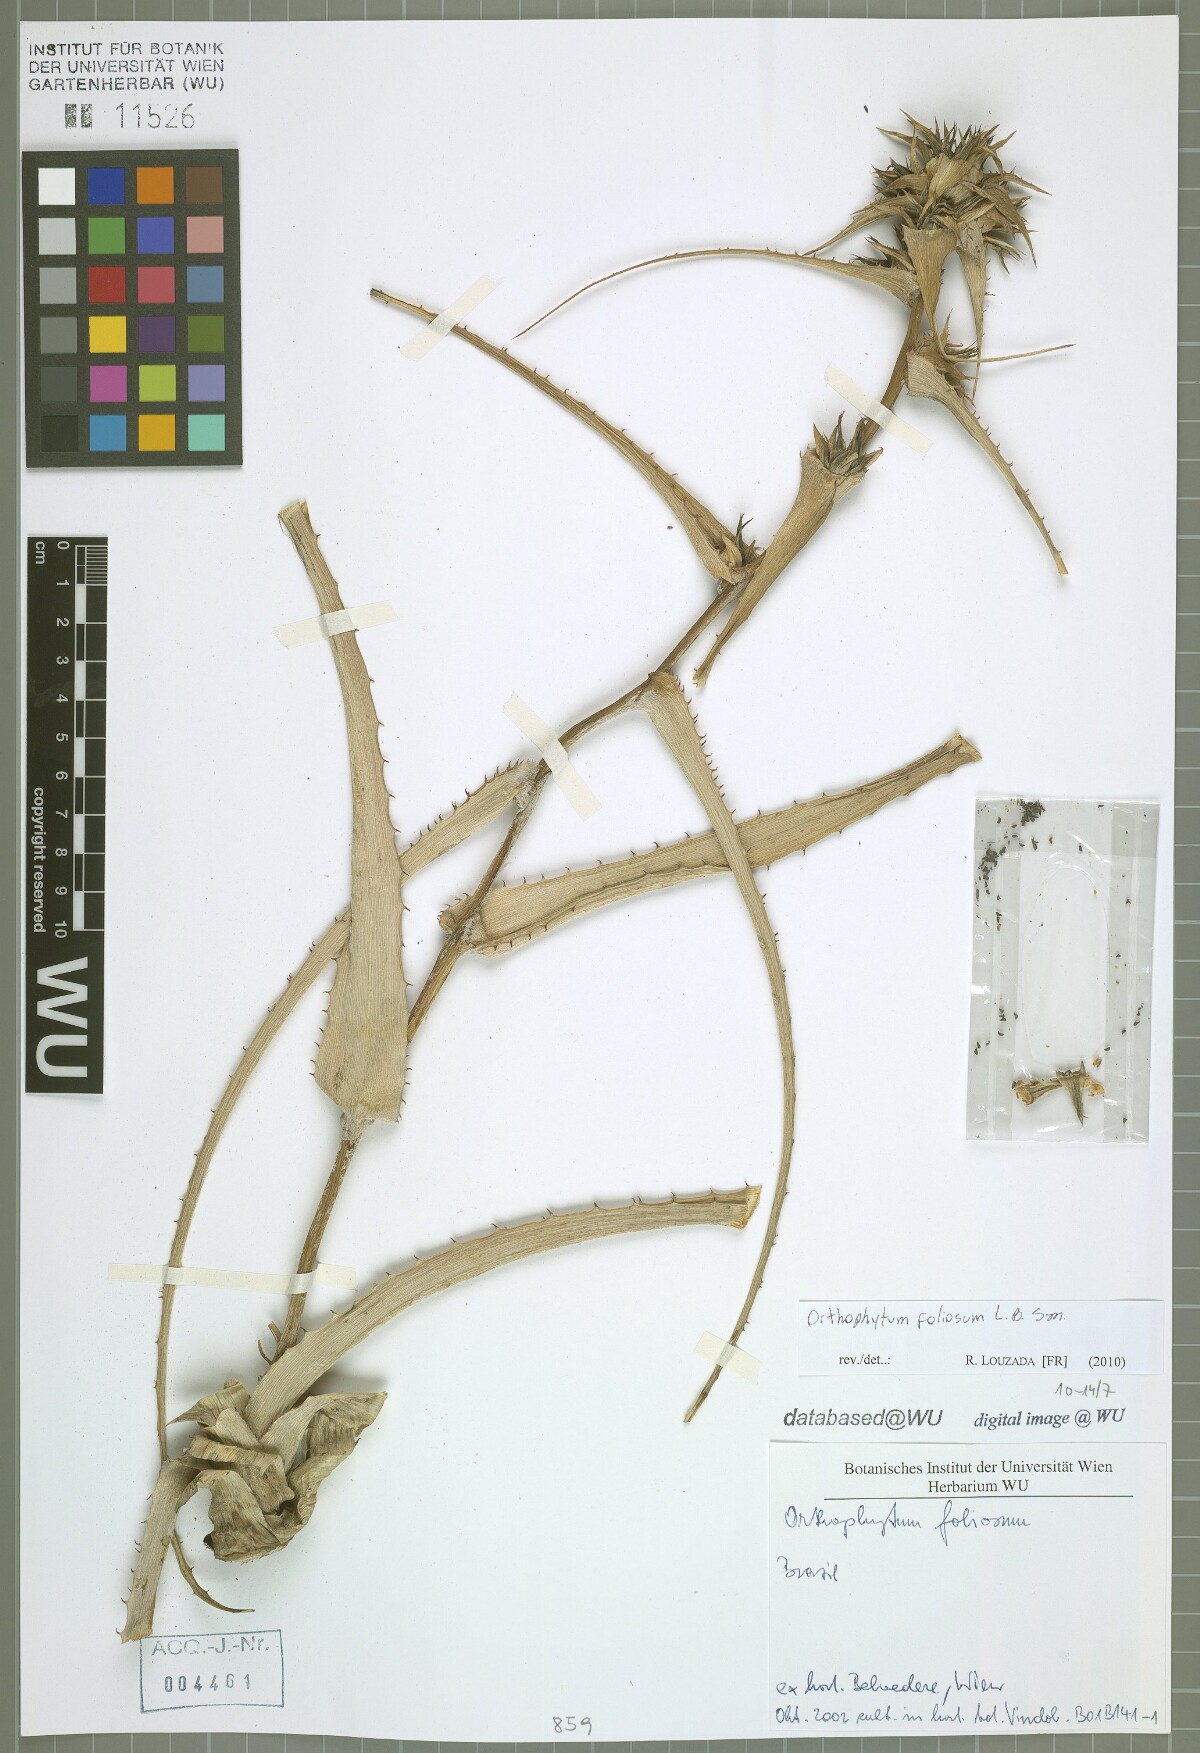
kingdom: Plantae
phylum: Tracheophyta
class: Liliopsida
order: Poales
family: Bromeliaceae
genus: Orthophytum
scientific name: Orthophytum foliosum
